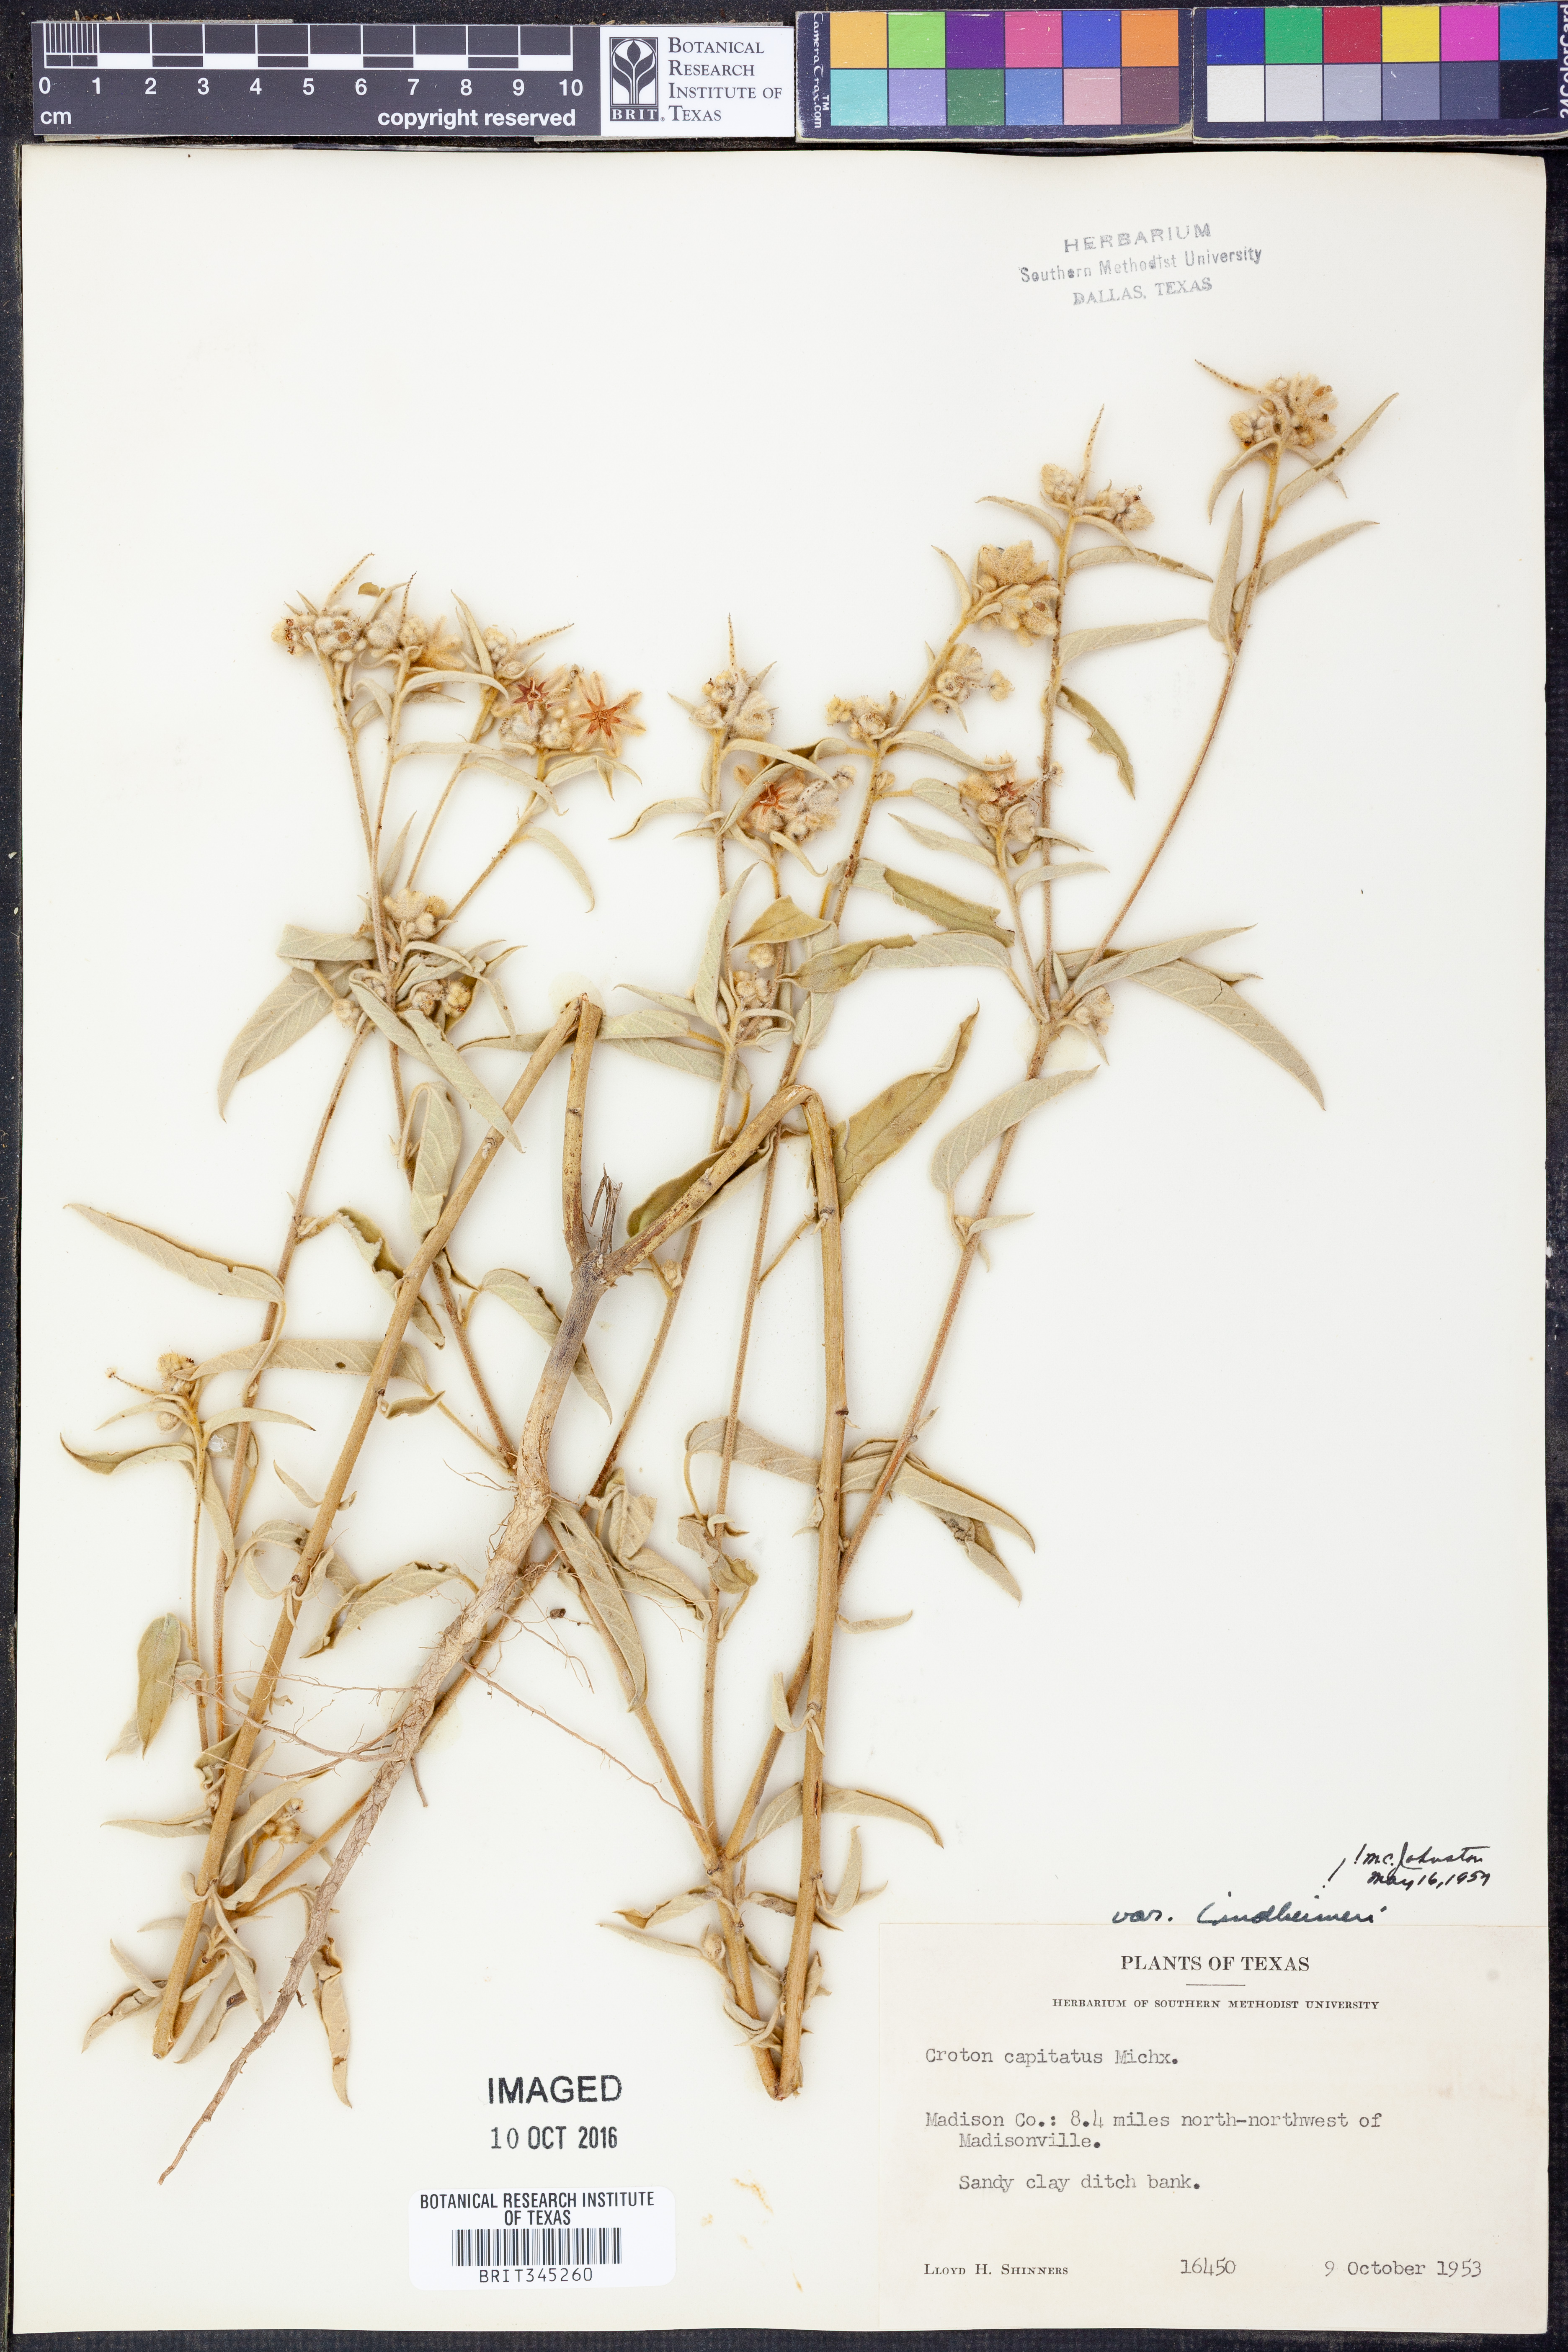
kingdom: Plantae
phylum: Tracheophyta
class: Magnoliopsida
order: Malpighiales
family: Euphorbiaceae
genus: Croton
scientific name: Croton lindheimeri
